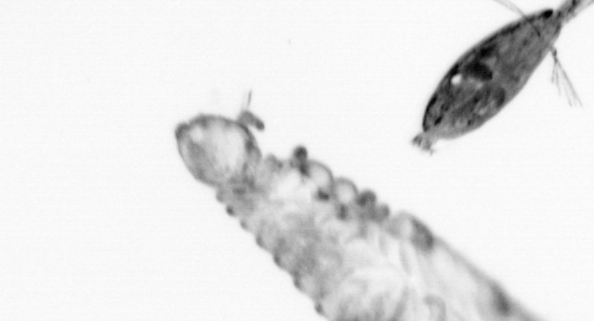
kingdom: Animalia
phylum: Arthropoda
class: Maxillopoda
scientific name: Maxillopoda
